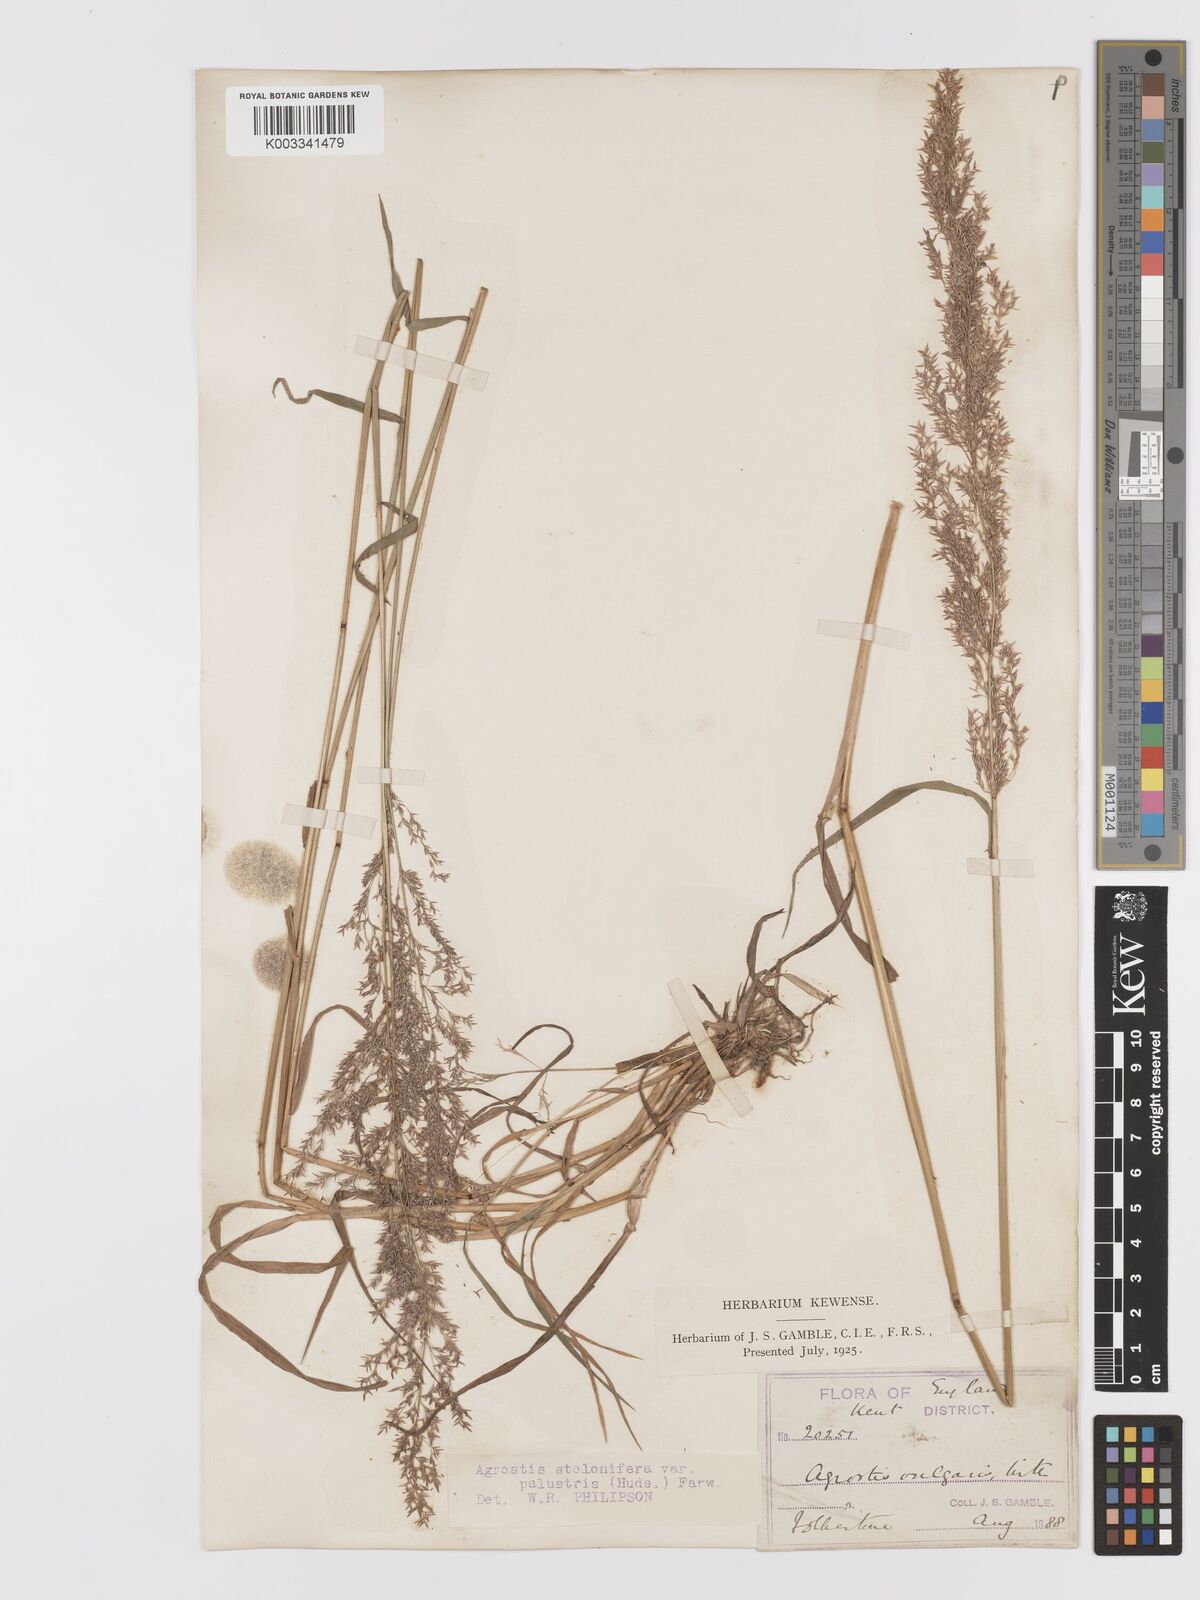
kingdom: Plantae
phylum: Tracheophyta
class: Liliopsida
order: Poales
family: Poaceae
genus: Agrostis
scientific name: Agrostis stolonifera
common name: Creeping bentgrass
